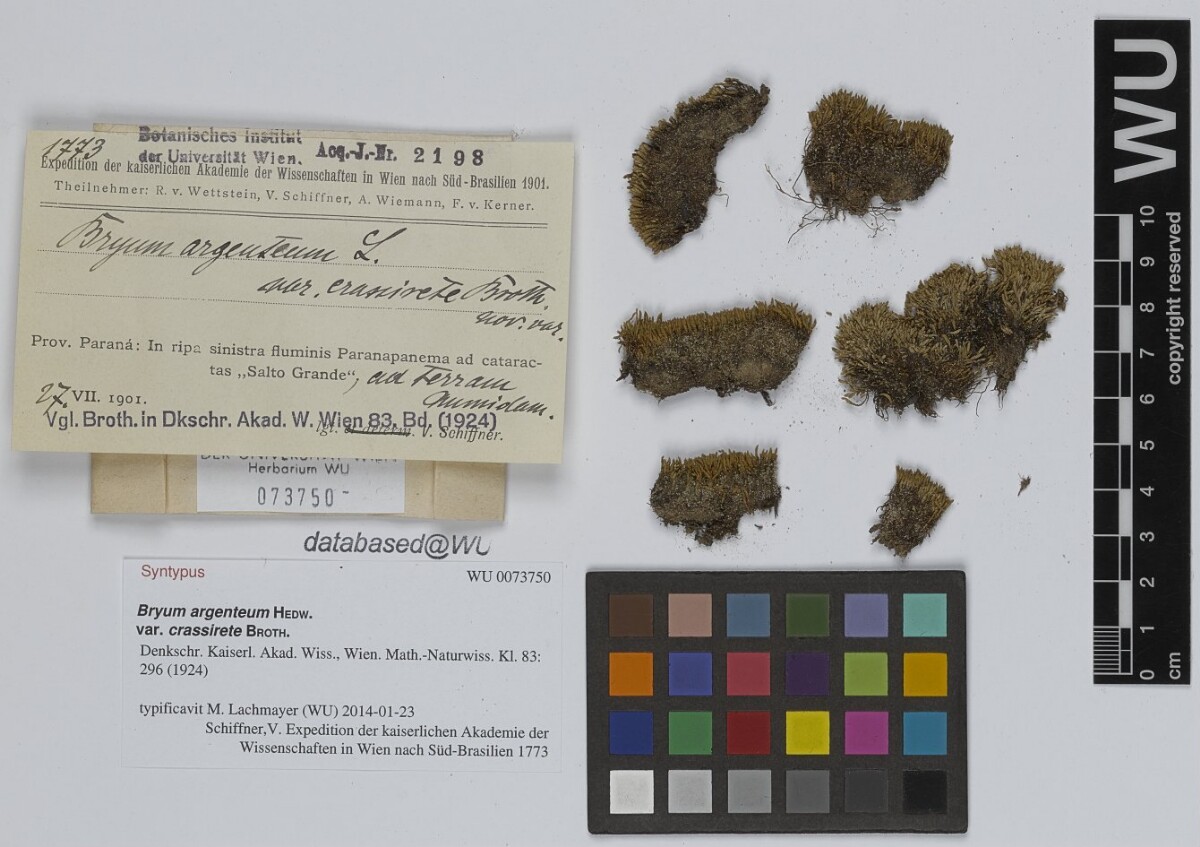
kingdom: Plantae
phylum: Bryophyta
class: Bryopsida
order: Bryales
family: Bryaceae
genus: Bryum
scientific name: Bryum argenteum
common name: Silver-moss
